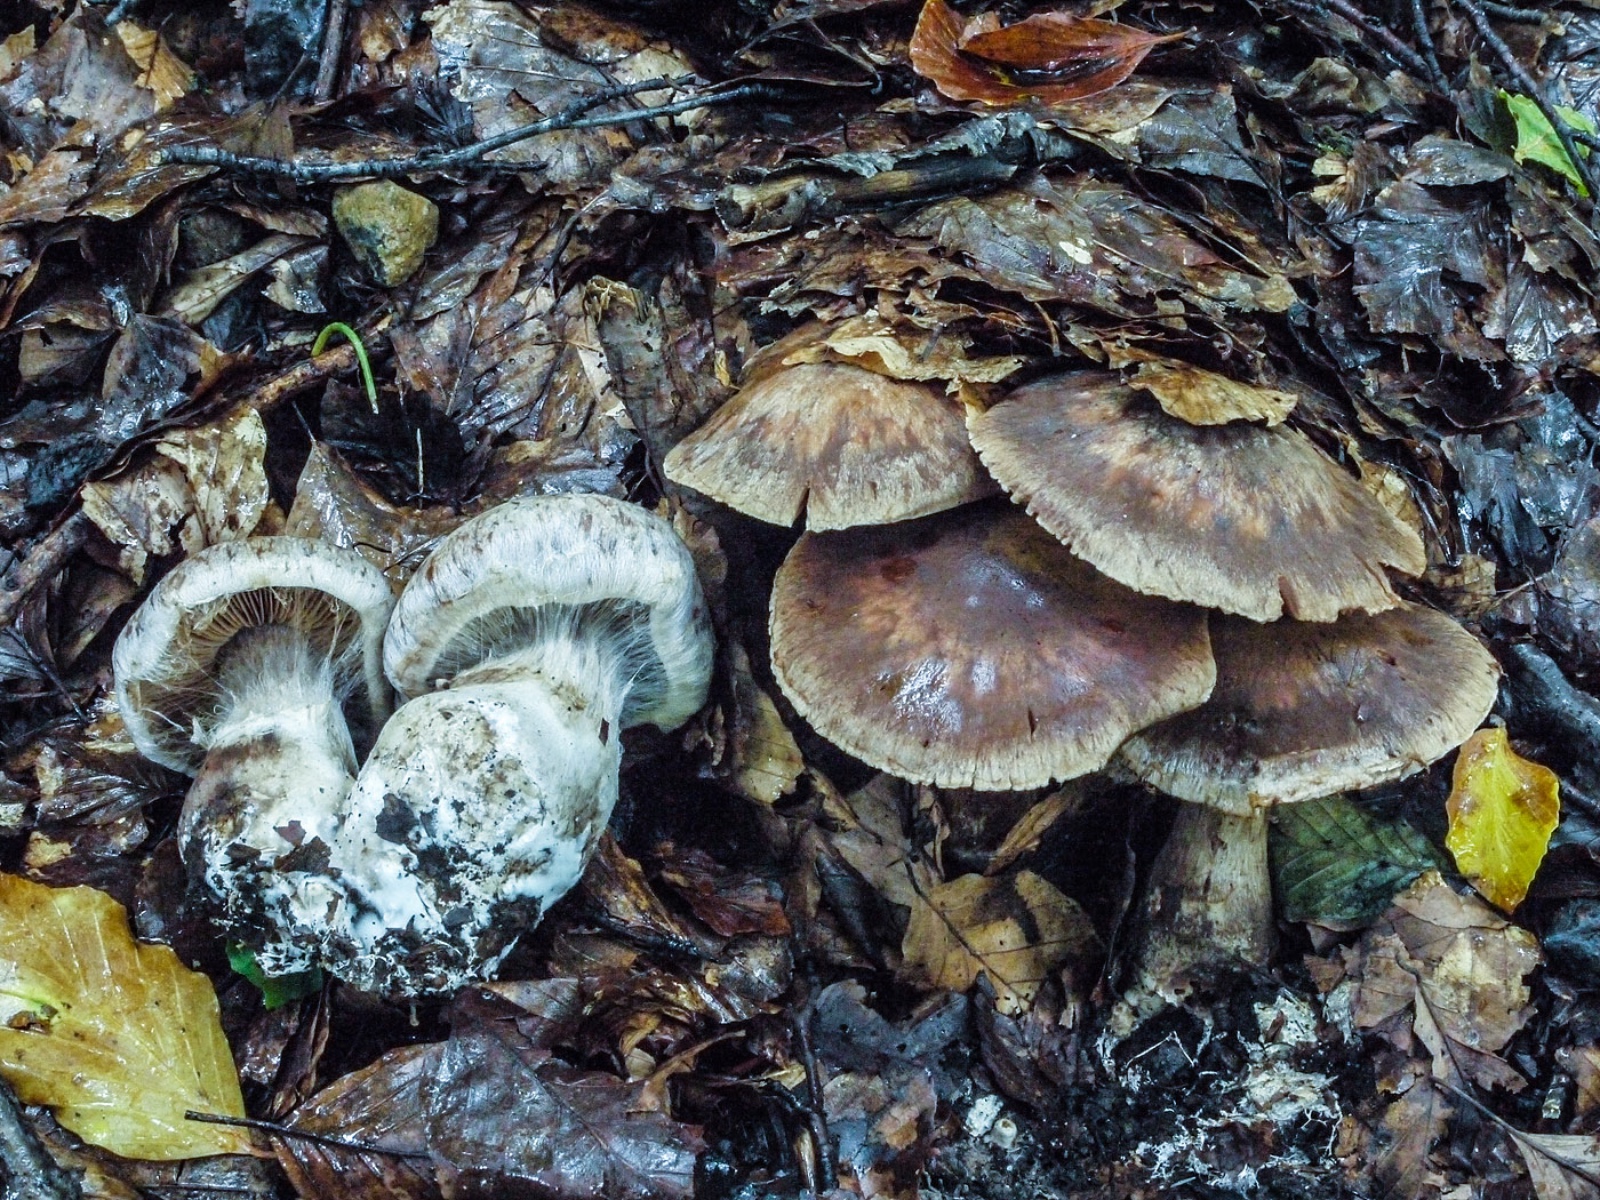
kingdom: Fungi
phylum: Basidiomycota
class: Agaricomycetes
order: Agaricales
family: Cortinariaceae
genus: Cortinarius
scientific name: Cortinarius stipitemirus
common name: vildsvine-slørhat
